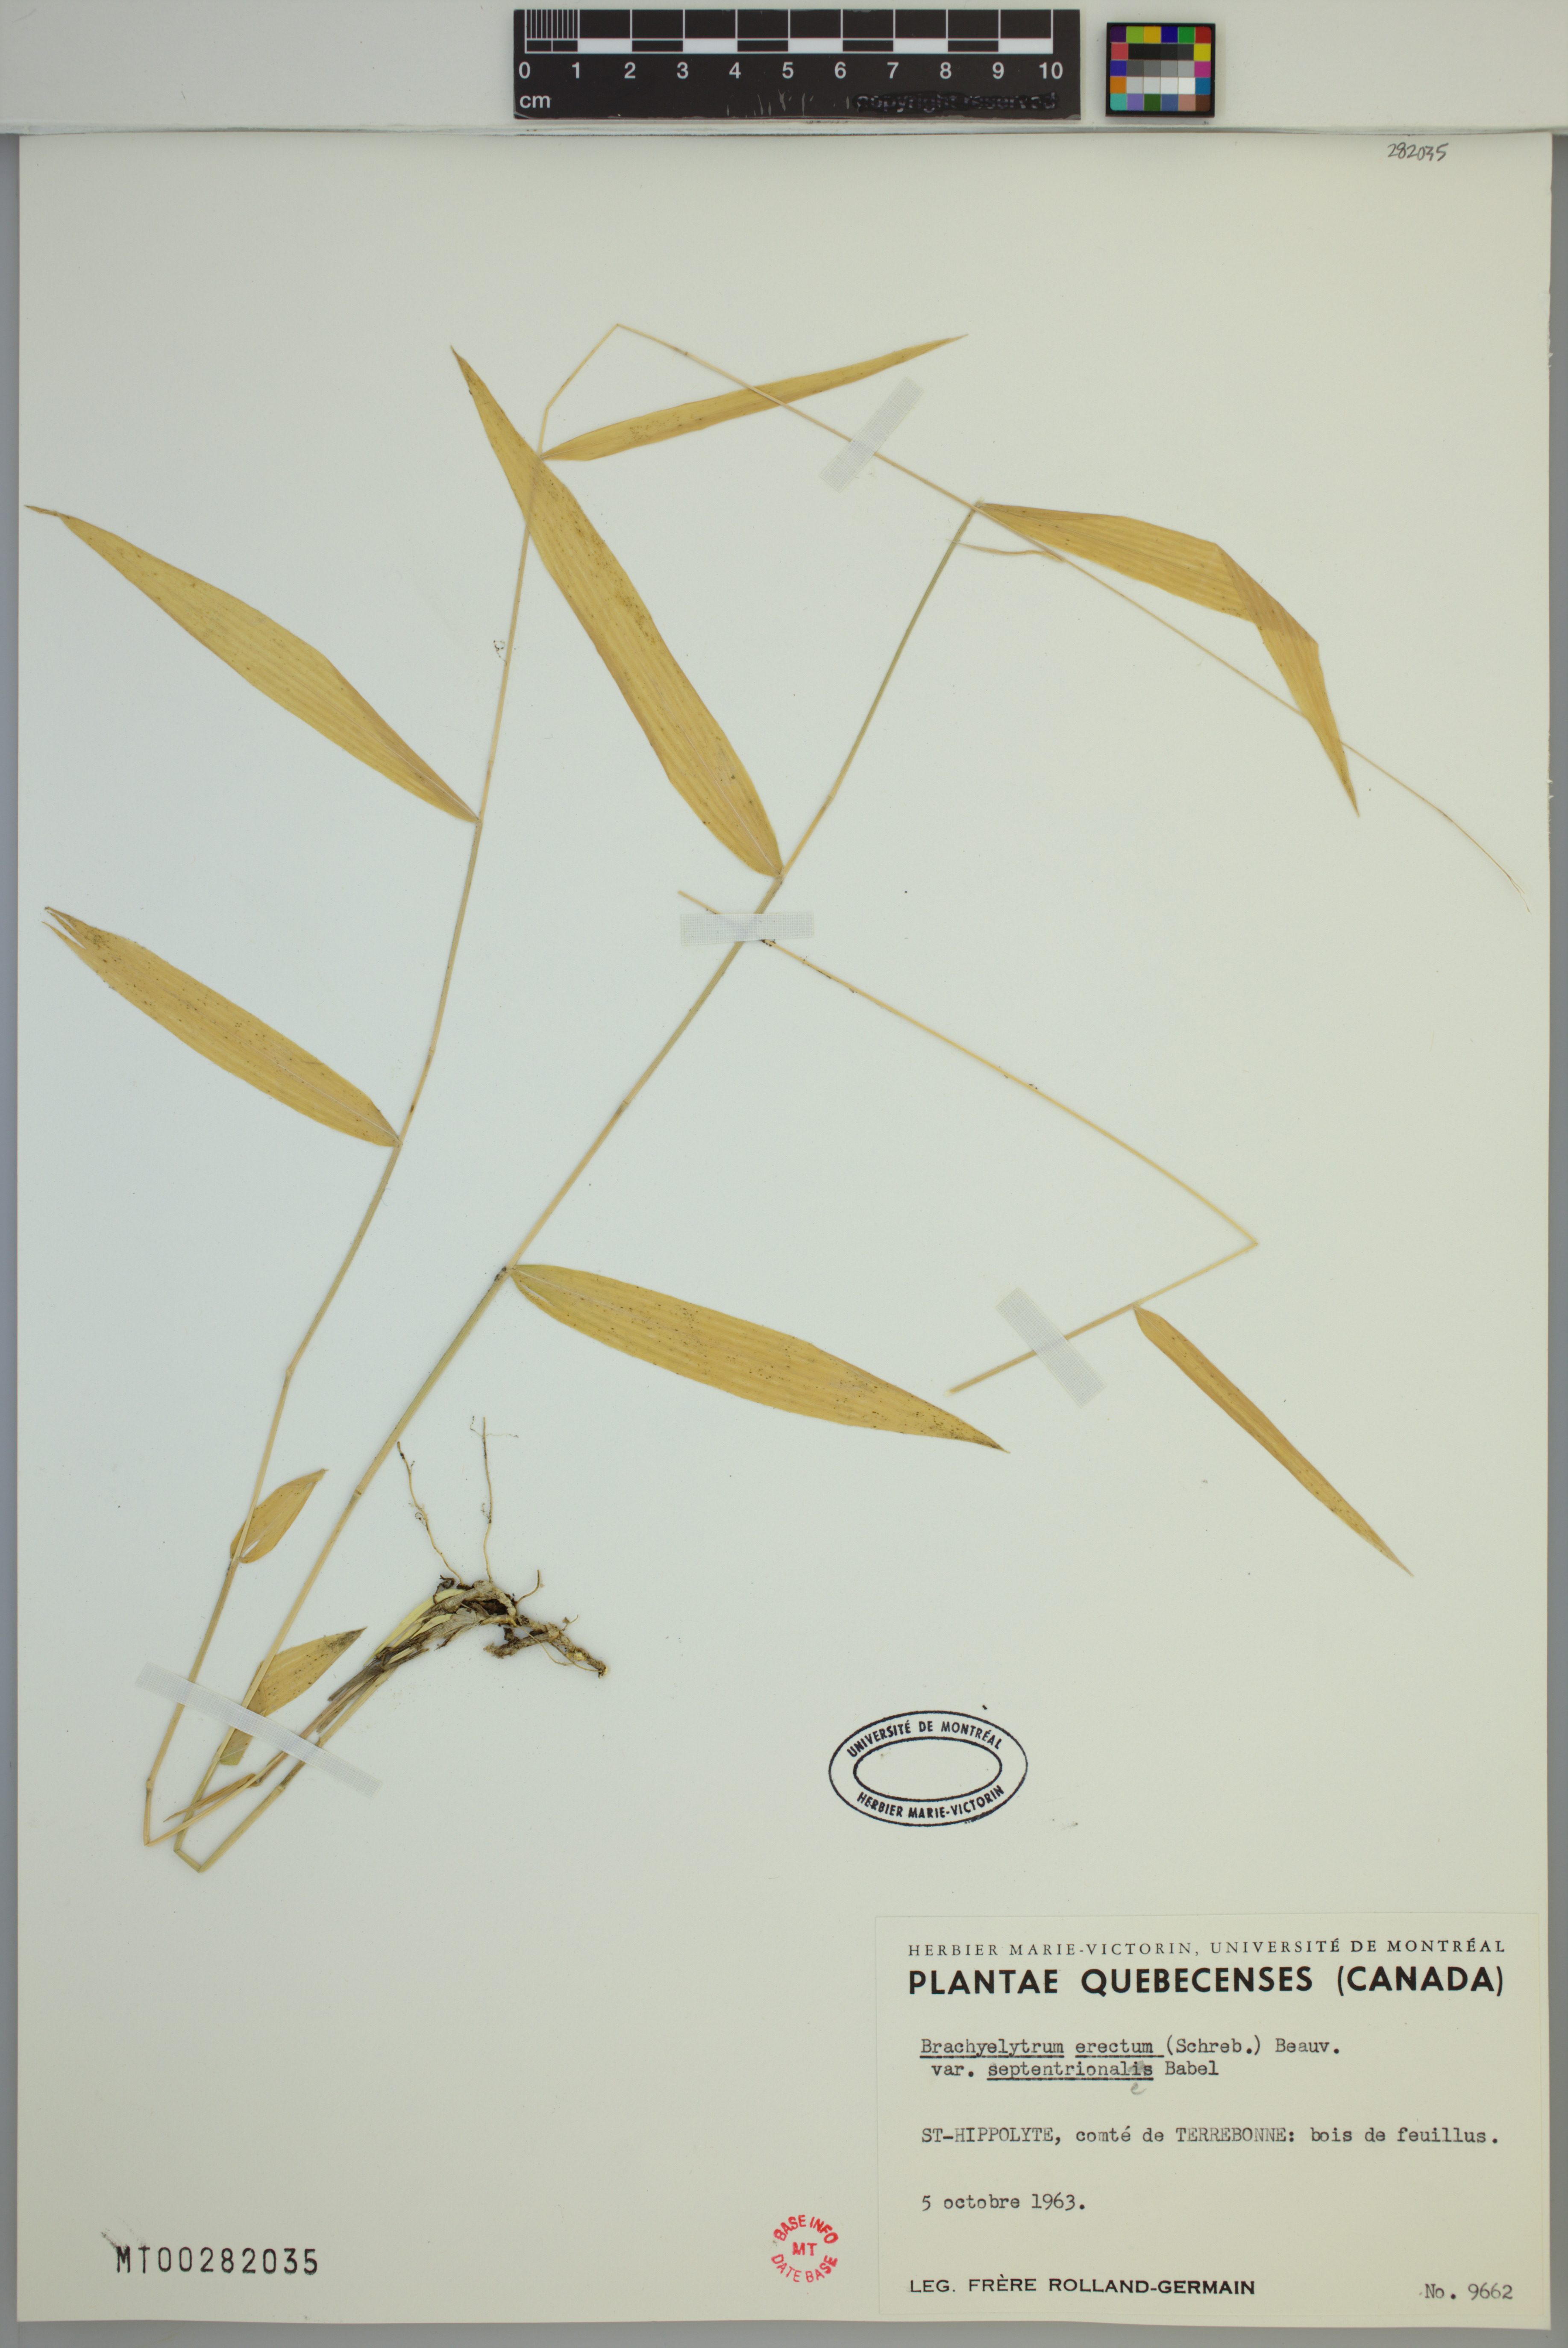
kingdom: Plantae
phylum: Tracheophyta
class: Liliopsida
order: Poales
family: Poaceae
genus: Brachyelytrum
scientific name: Brachyelytrum aristosum
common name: Northern shorthusk
